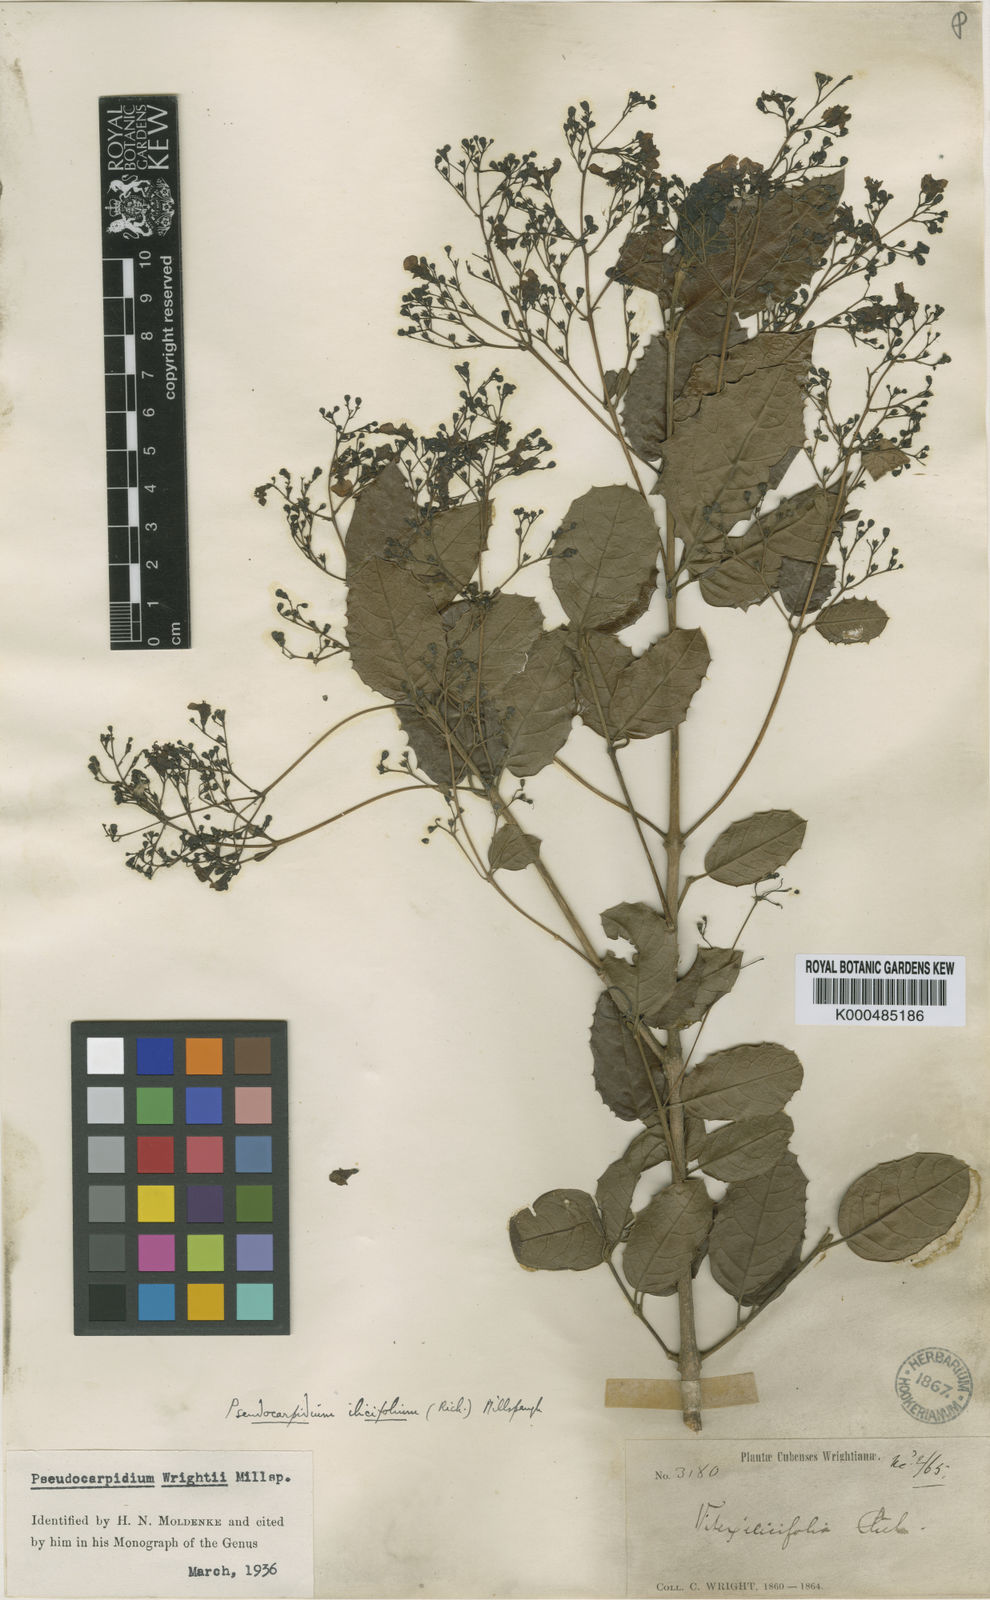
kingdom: Plantae
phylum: Tracheophyta
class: Magnoliopsida
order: Lamiales
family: Lamiaceae
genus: Pseudocarpidium
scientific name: Pseudocarpidium wrightii
